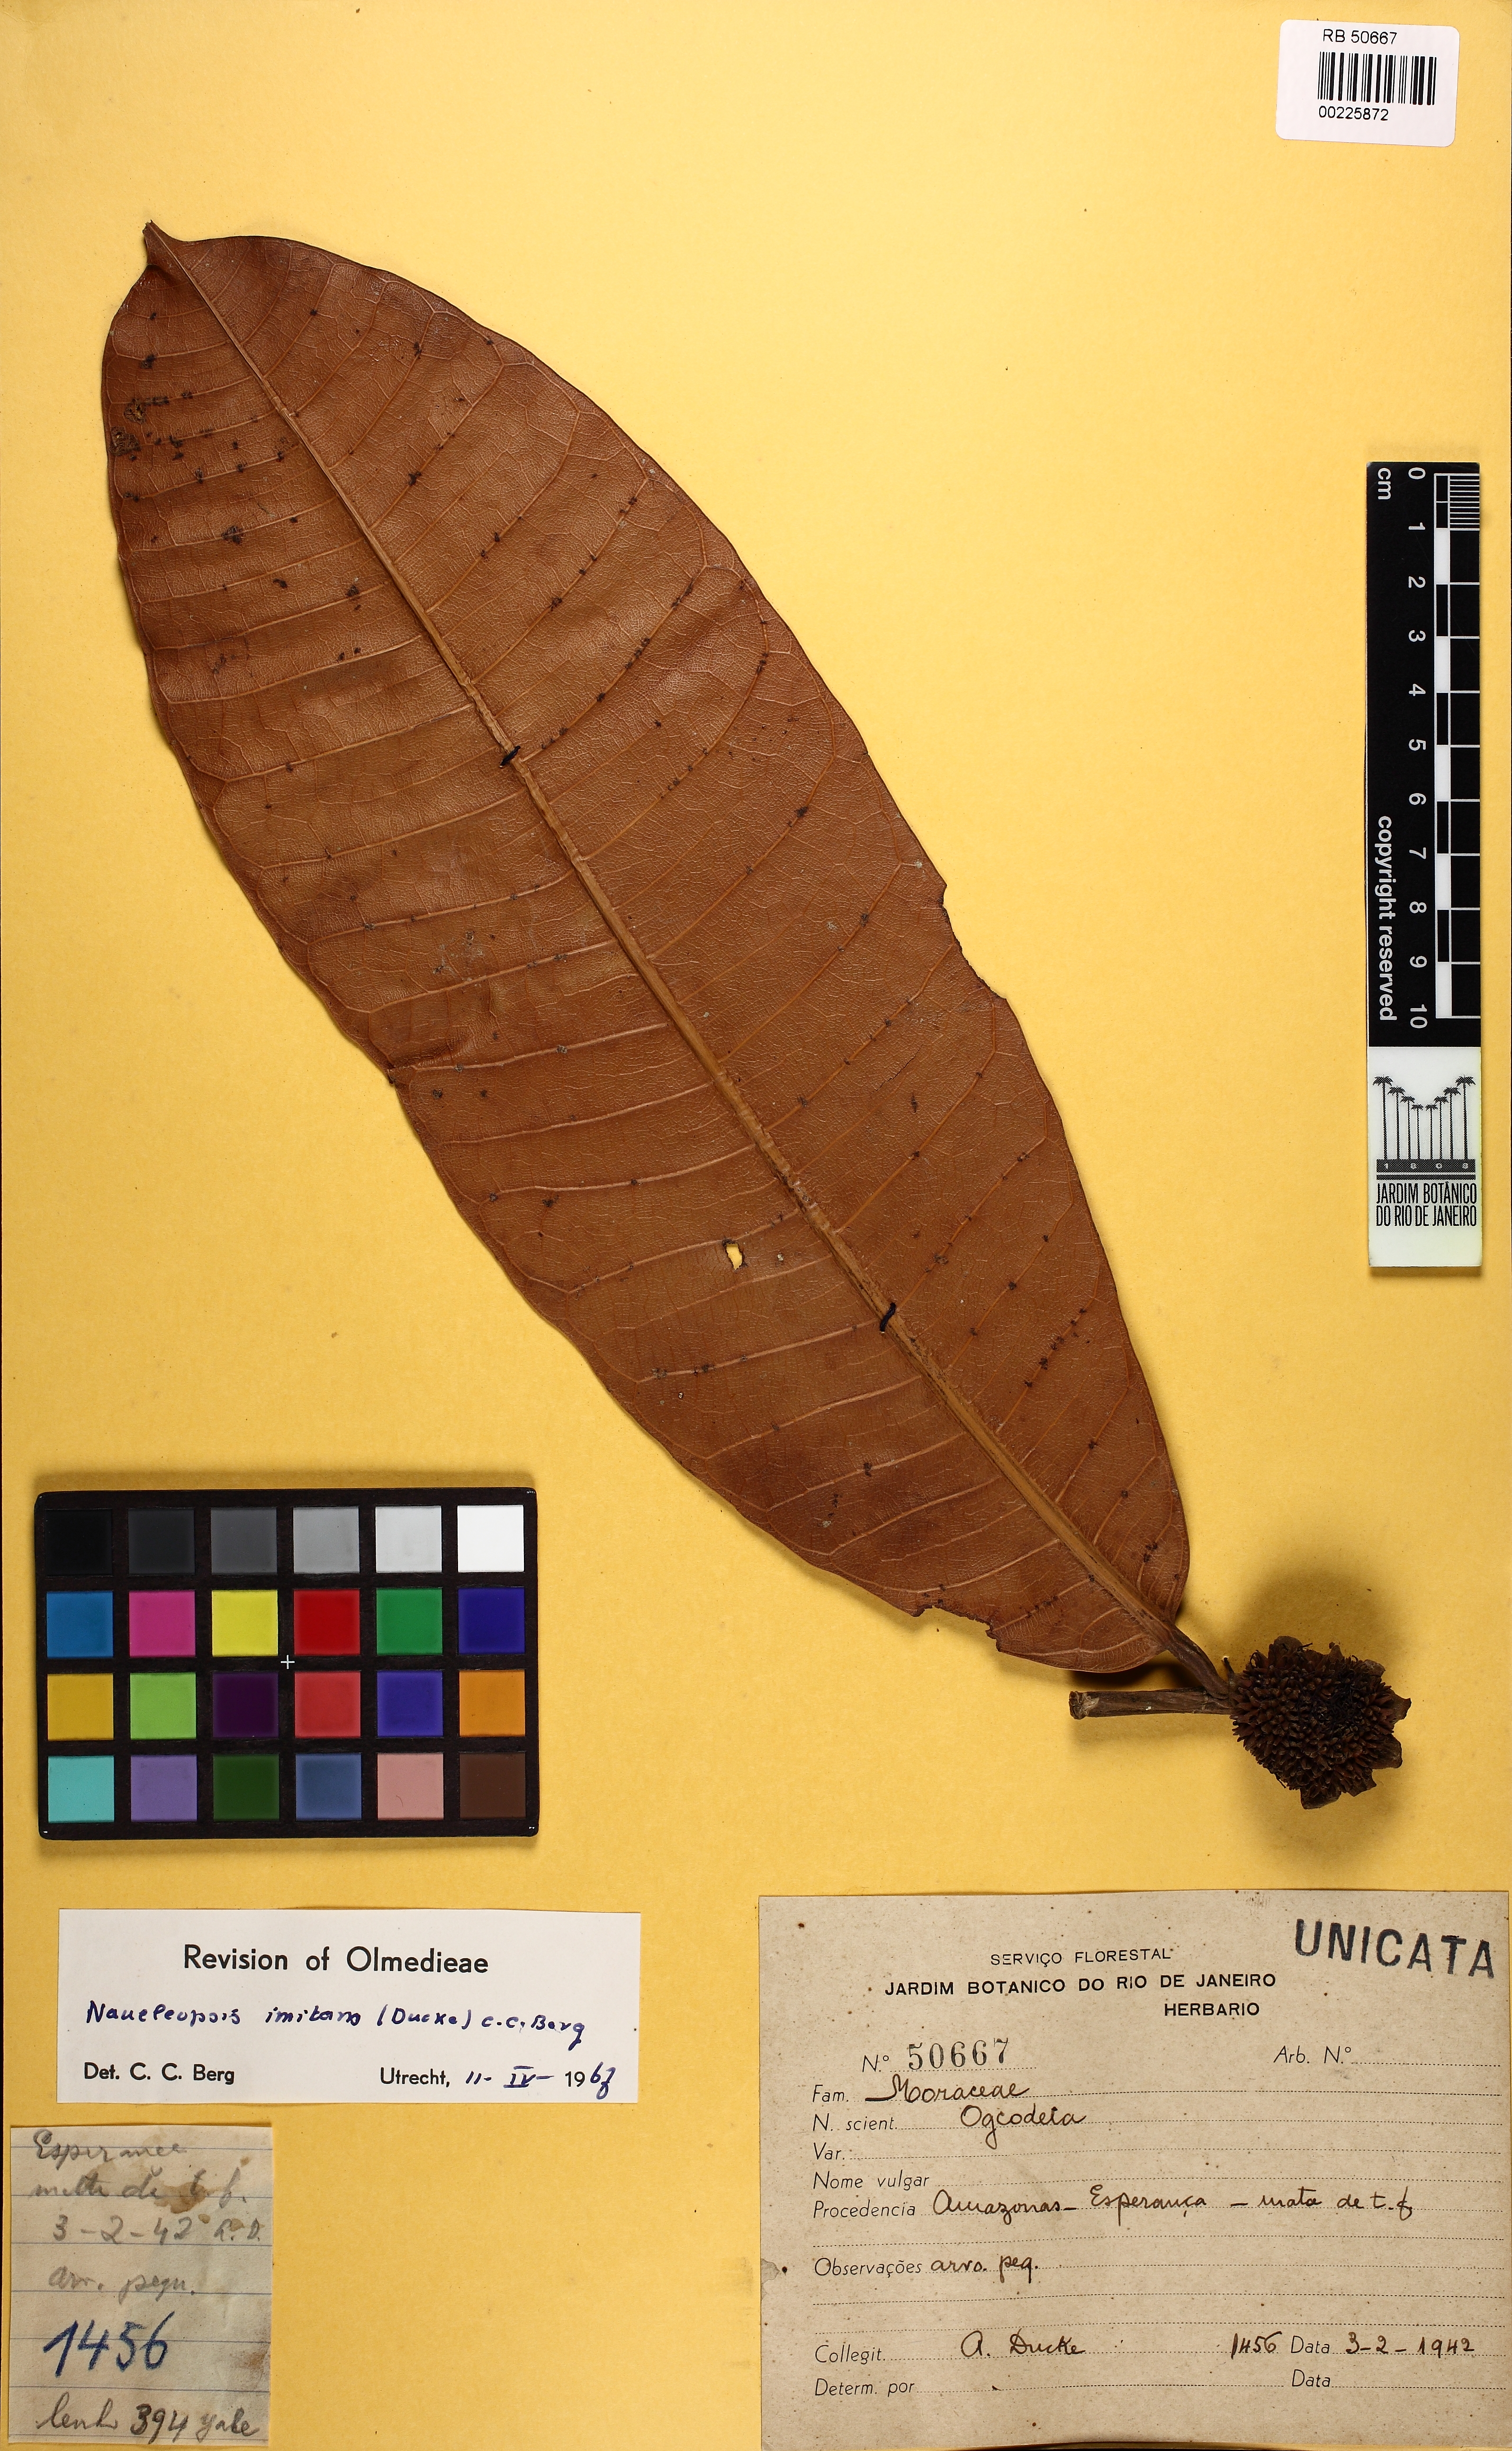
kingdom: Plantae
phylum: Tracheophyta
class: Magnoliopsida
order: Rosales
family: Moraceae
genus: Naucleopsis
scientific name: Naucleopsis imitans
